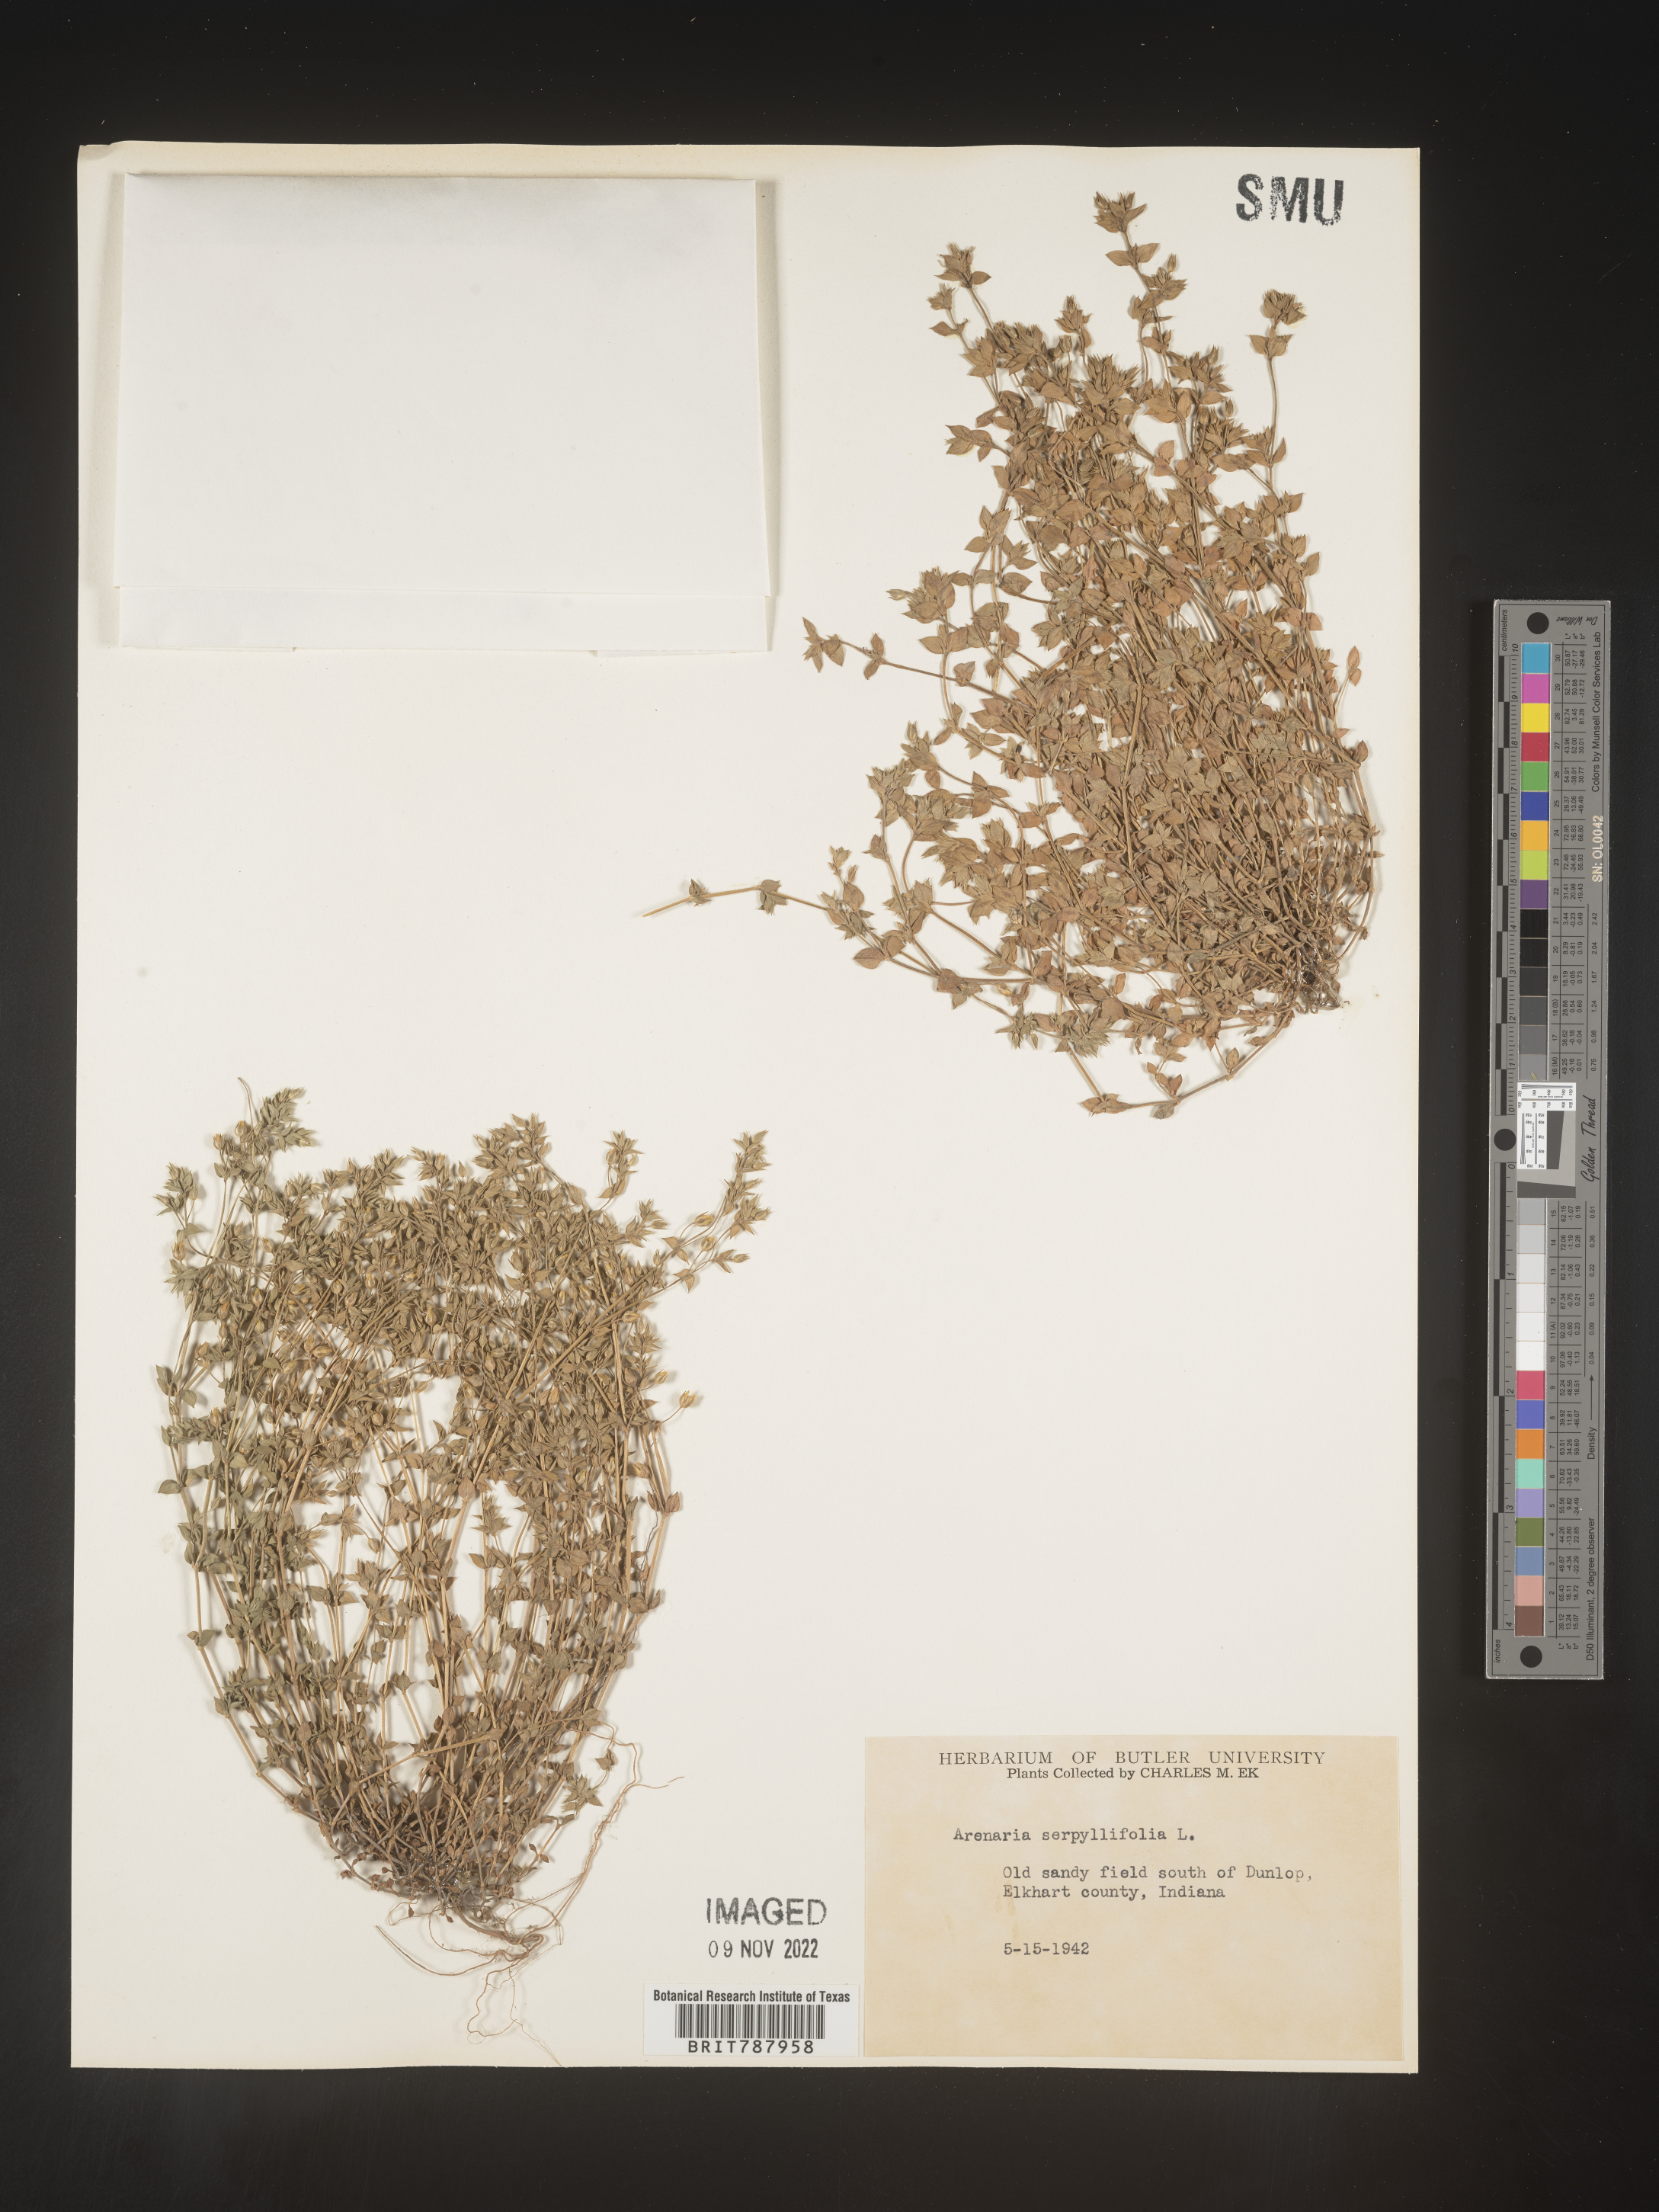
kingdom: Plantae
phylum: Tracheophyta
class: Magnoliopsida
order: Caryophyllales
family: Caryophyllaceae
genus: Arenaria
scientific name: Arenaria serpyllifolia
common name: Thyme-leaved sandwort
